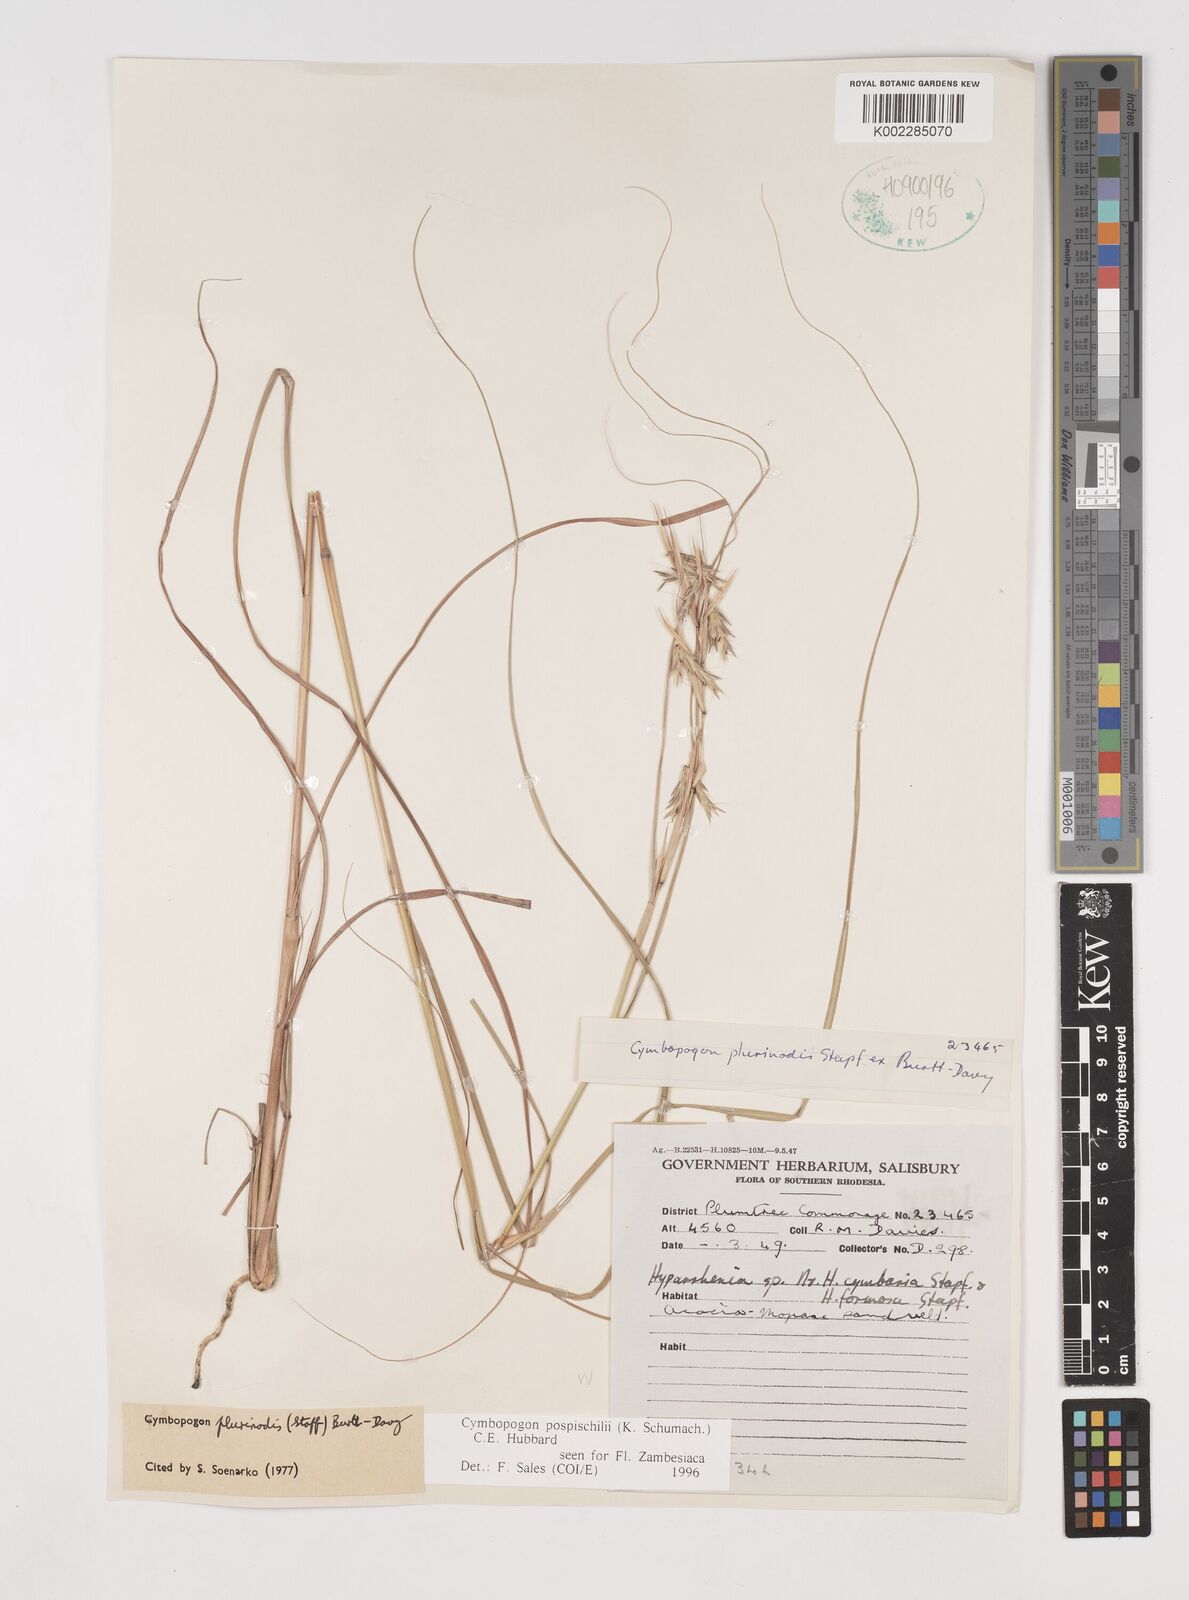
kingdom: Plantae
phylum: Tracheophyta
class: Liliopsida
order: Poales
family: Poaceae
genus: Cymbopogon
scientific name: Cymbopogon pospischilii
